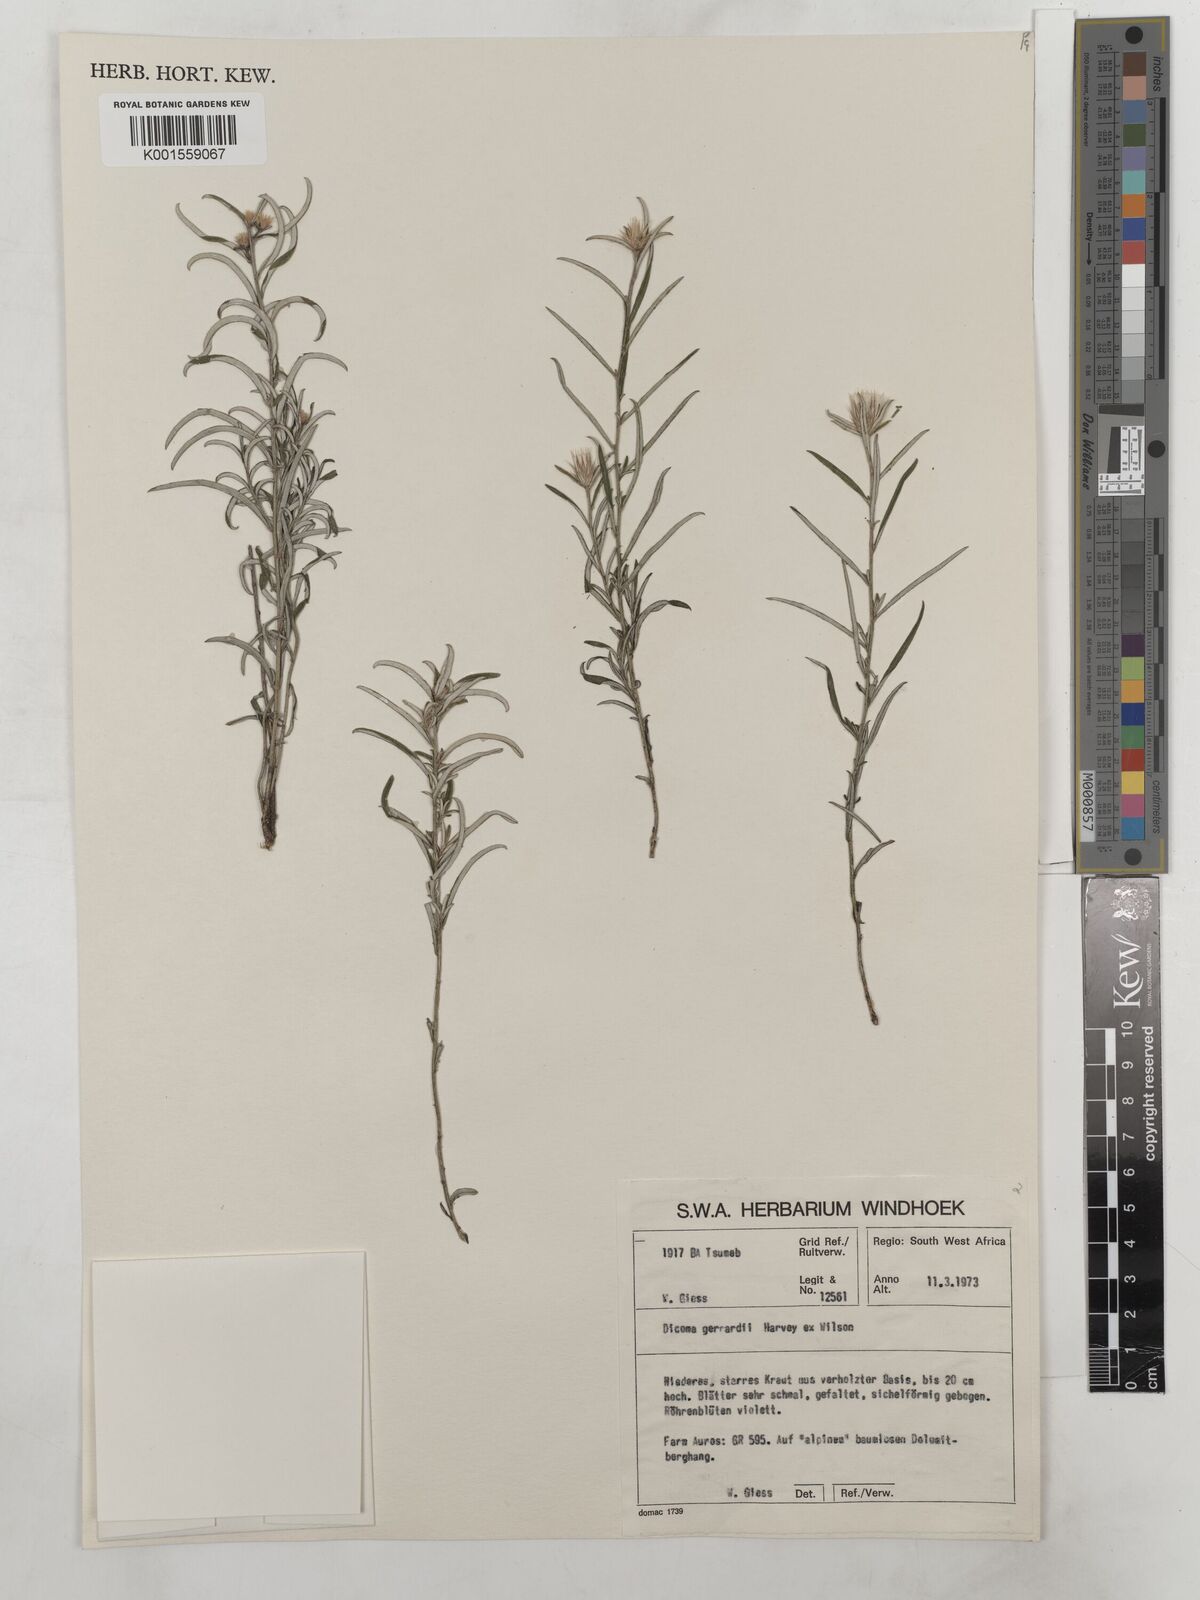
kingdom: Plantae
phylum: Tracheophyta
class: Magnoliopsida
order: Asterales
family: Asteraceae
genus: Dicoma
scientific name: Dicoma anomala
